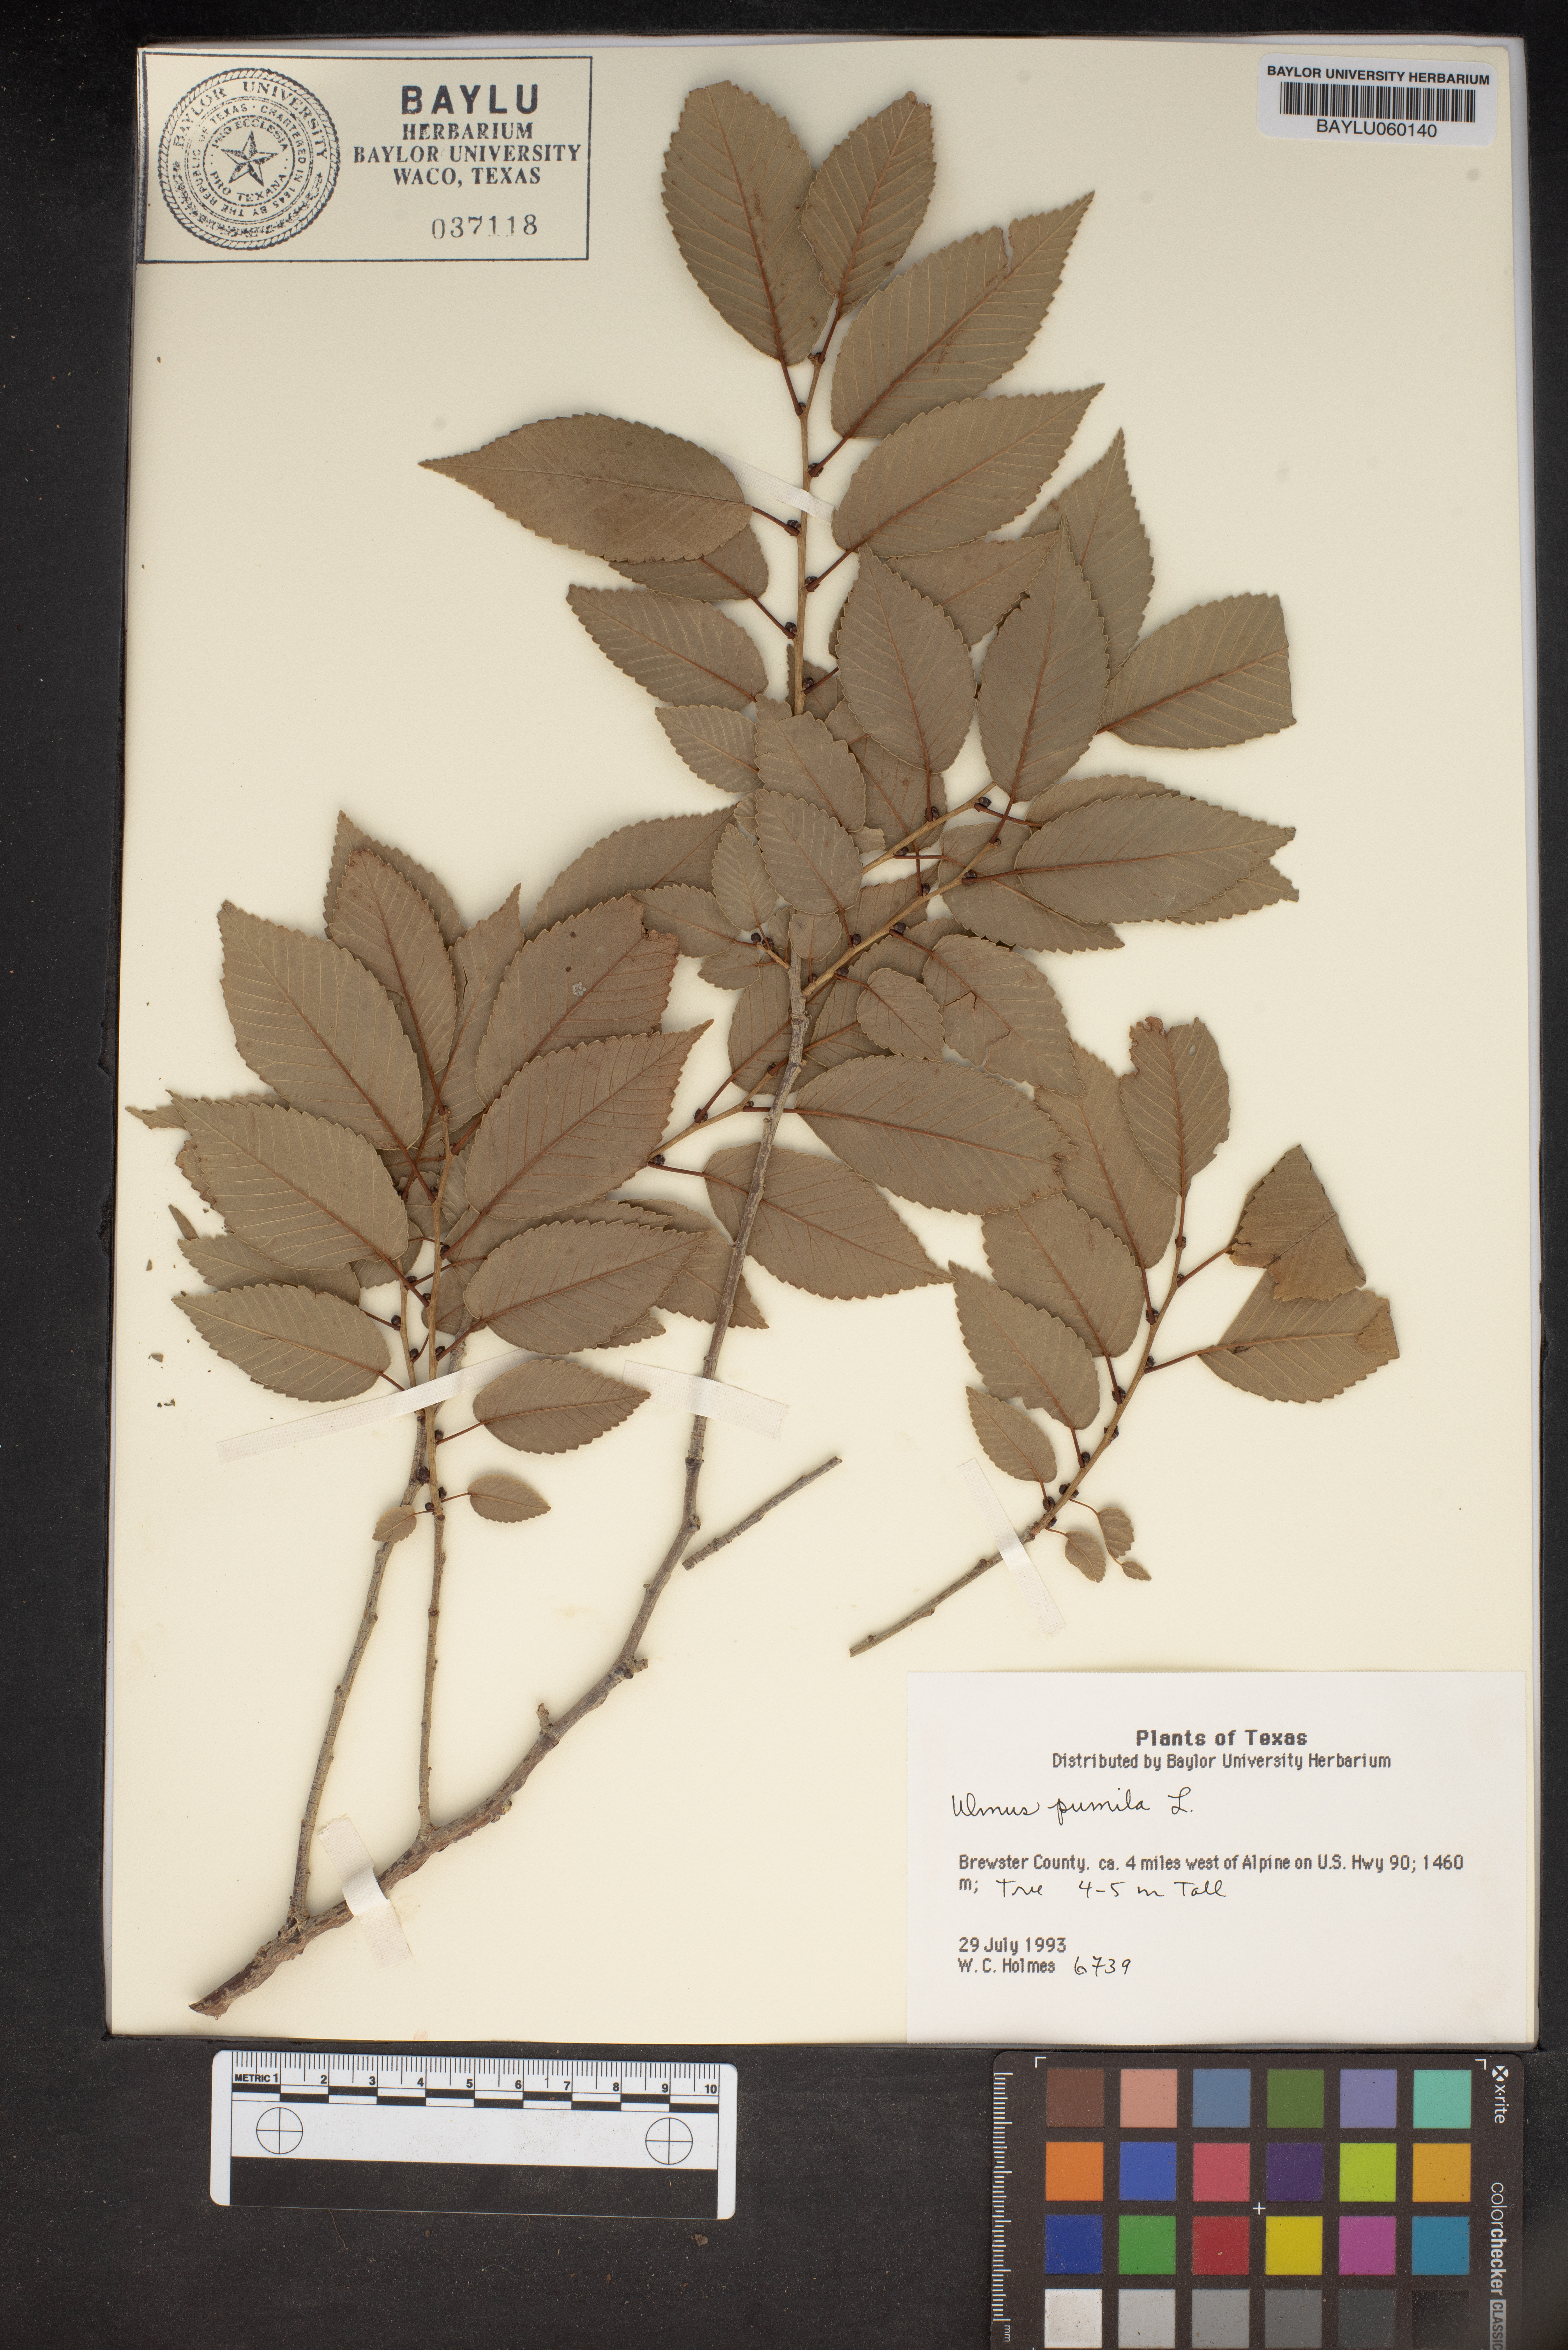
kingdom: Plantae
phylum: Tracheophyta
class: Magnoliopsida
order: Rosales
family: Ulmaceae
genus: Ulmus
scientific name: Ulmus pumila
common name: Siberian elm
